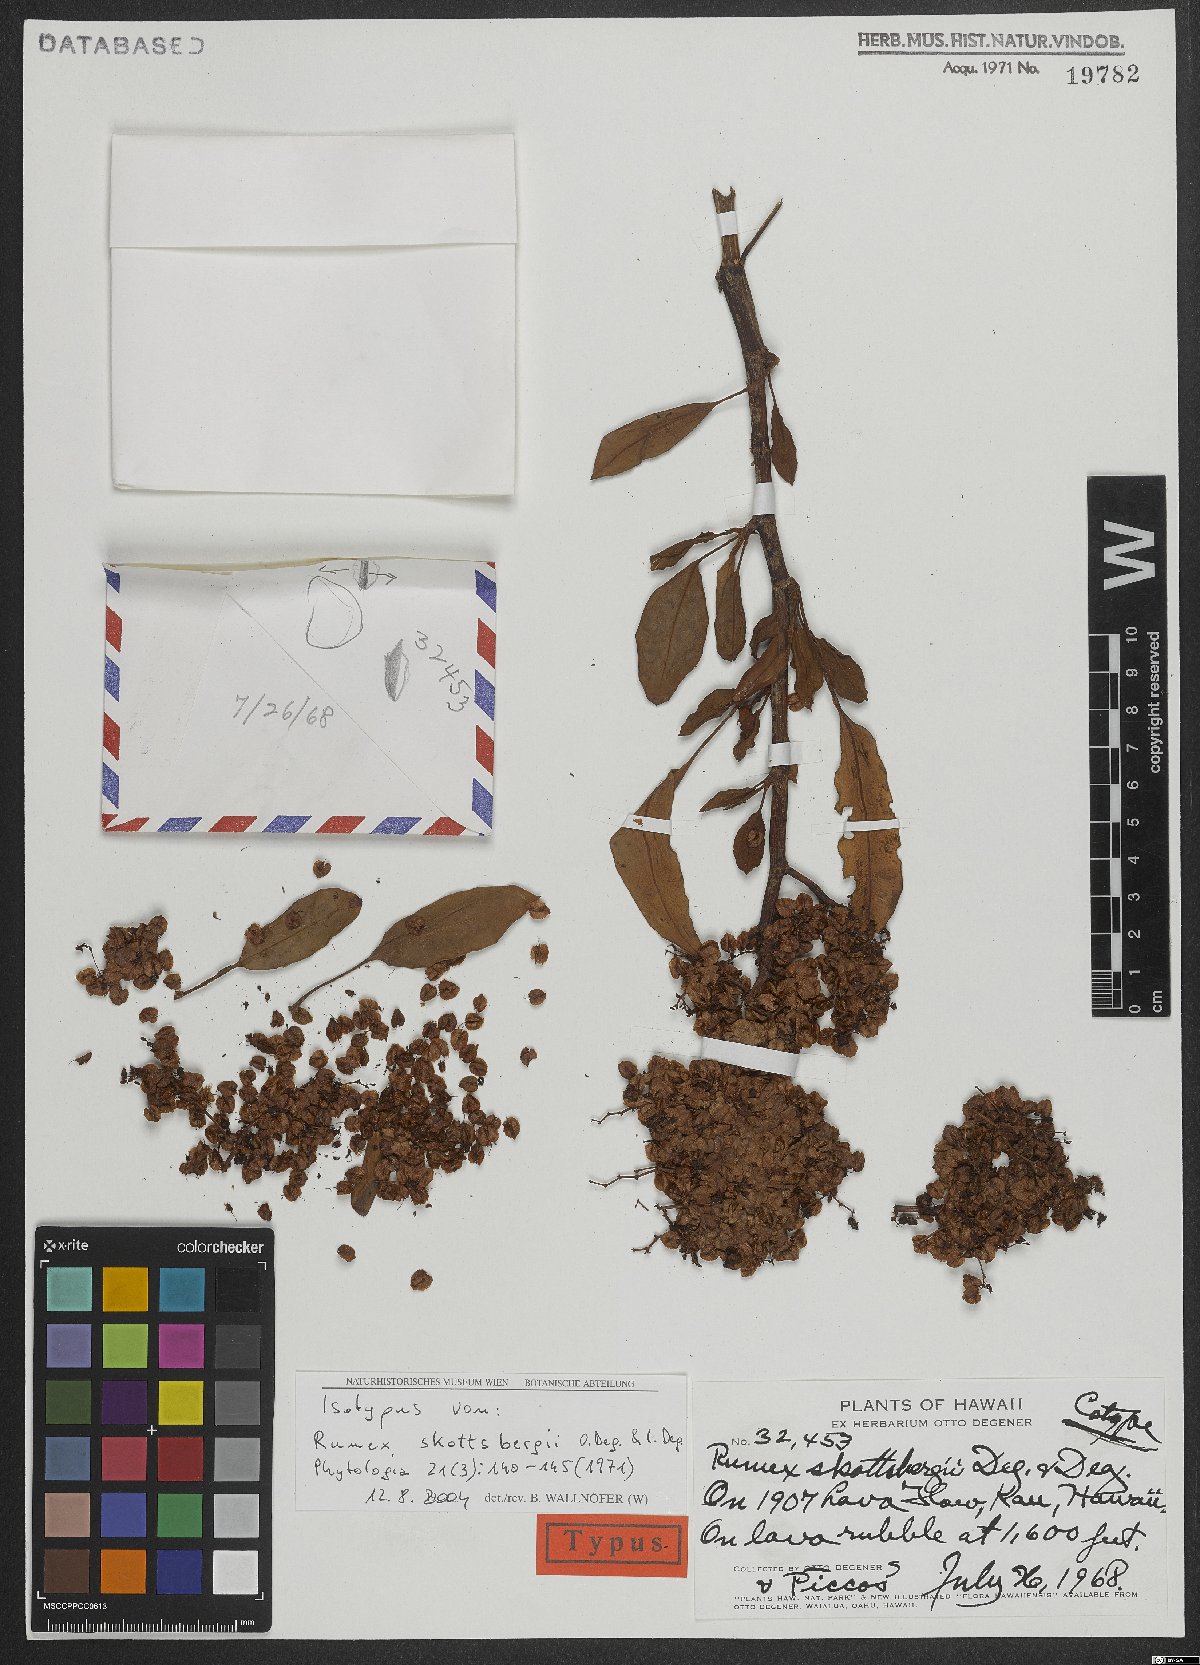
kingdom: Plantae
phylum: Tracheophyta
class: Magnoliopsida
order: Caryophyllales
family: Polygonaceae
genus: Rumex
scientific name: Rumex skottsbergii
